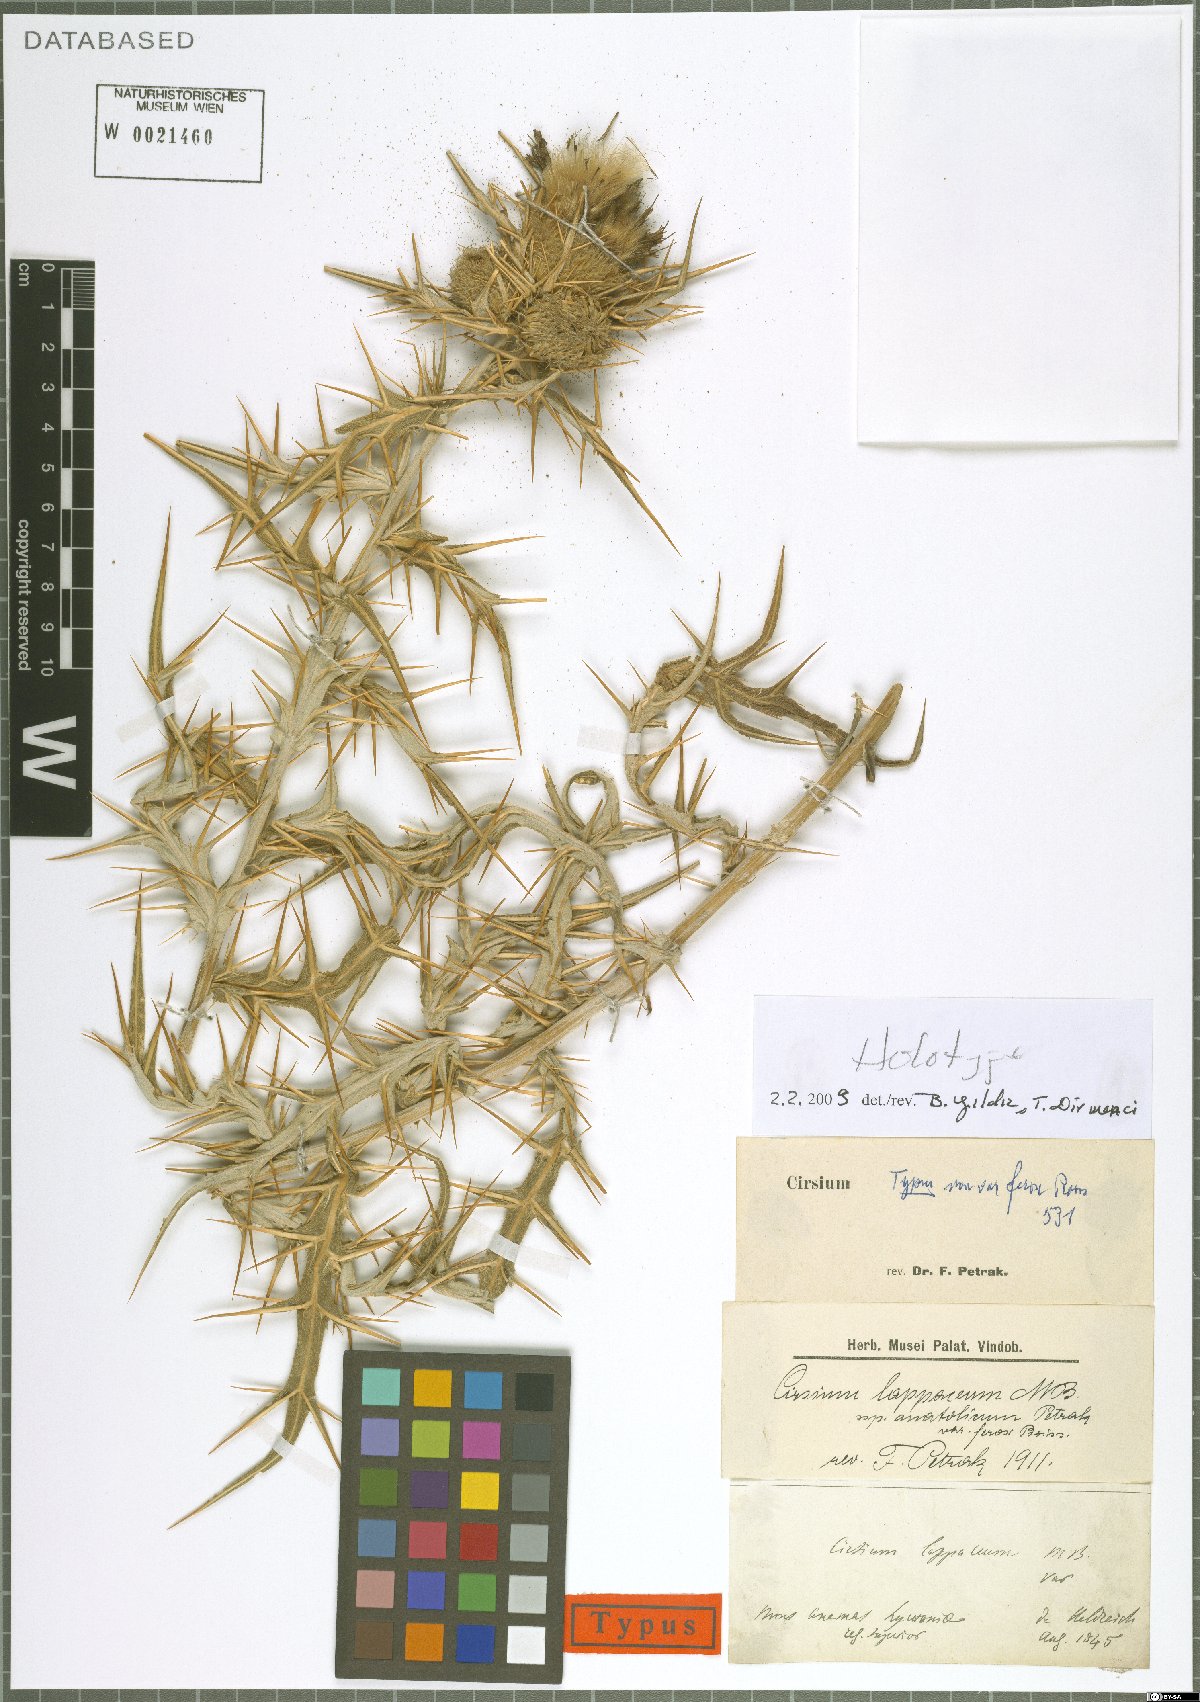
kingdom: Plantae
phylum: Tracheophyta
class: Magnoliopsida
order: Asterales
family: Asteraceae
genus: Lophiolepis
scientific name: Lophiolepis lappacea
